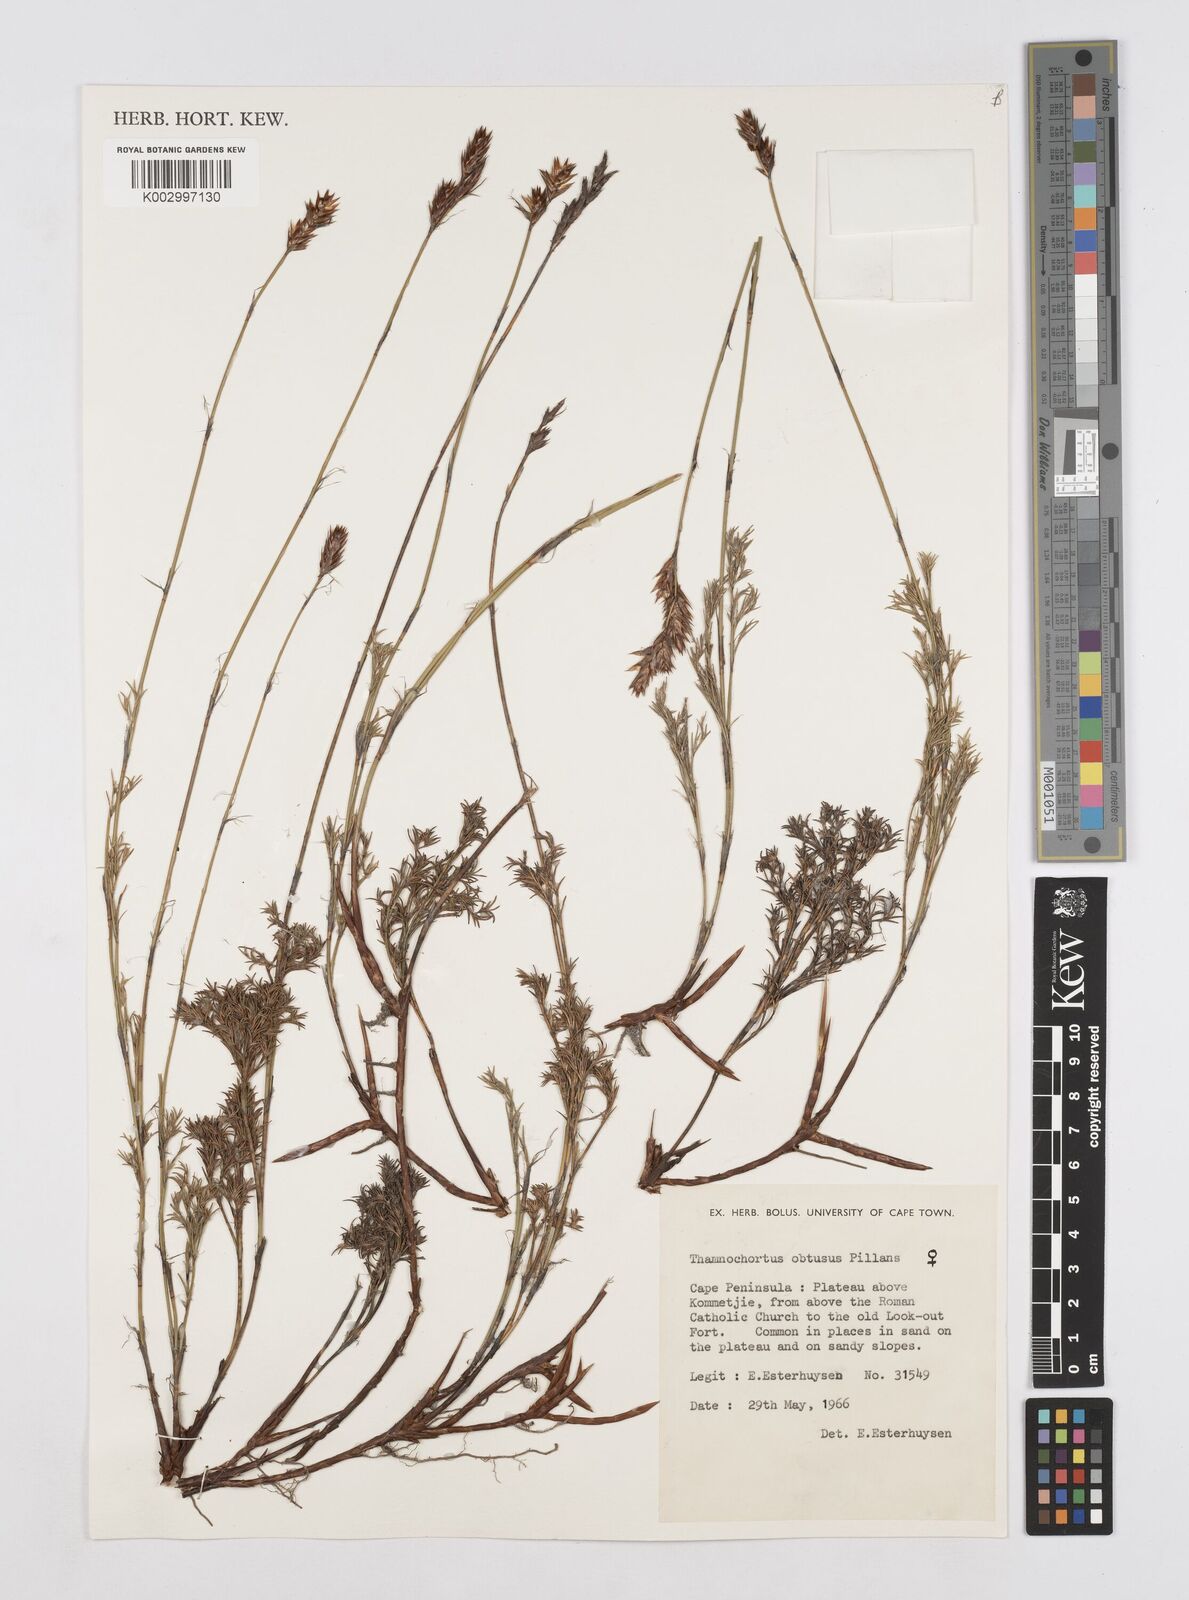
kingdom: Plantae
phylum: Tracheophyta
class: Liliopsida
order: Poales
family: Restionaceae
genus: Thamnochortus
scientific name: Thamnochortus obtusus
